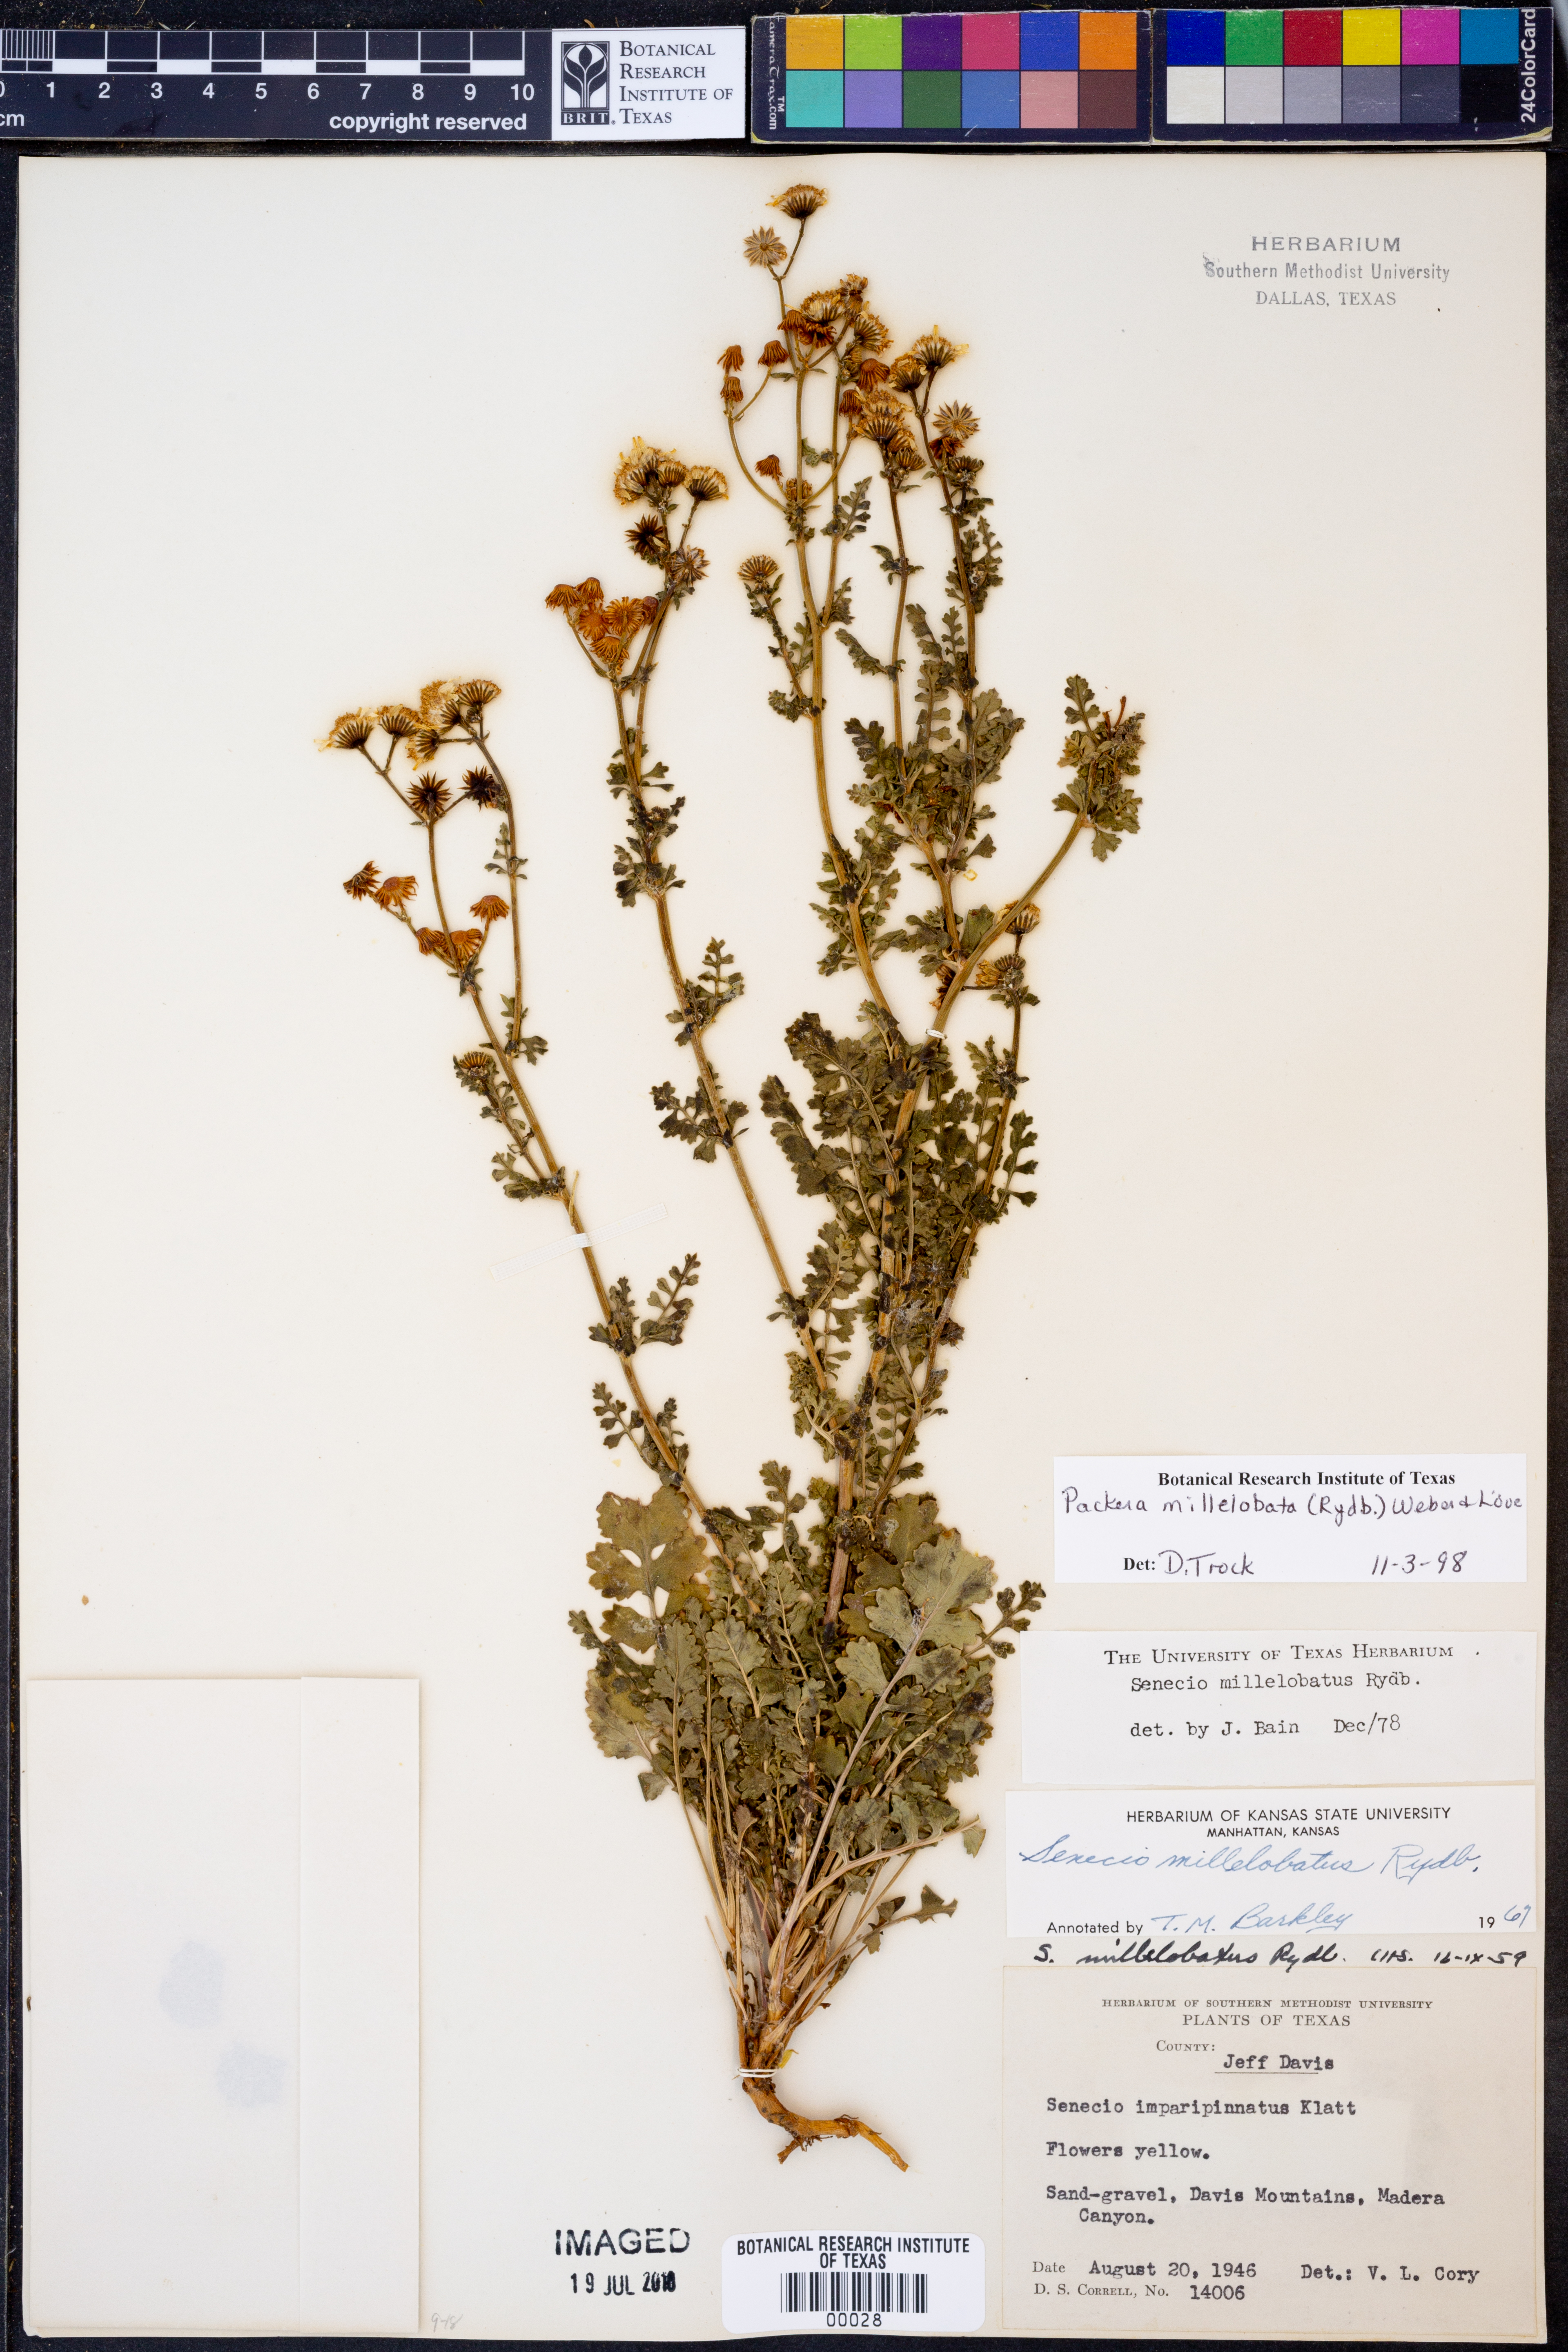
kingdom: Plantae
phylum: Tracheophyta
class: Magnoliopsida
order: Asterales
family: Asteraceae
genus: Packera
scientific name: Packera millelobata
